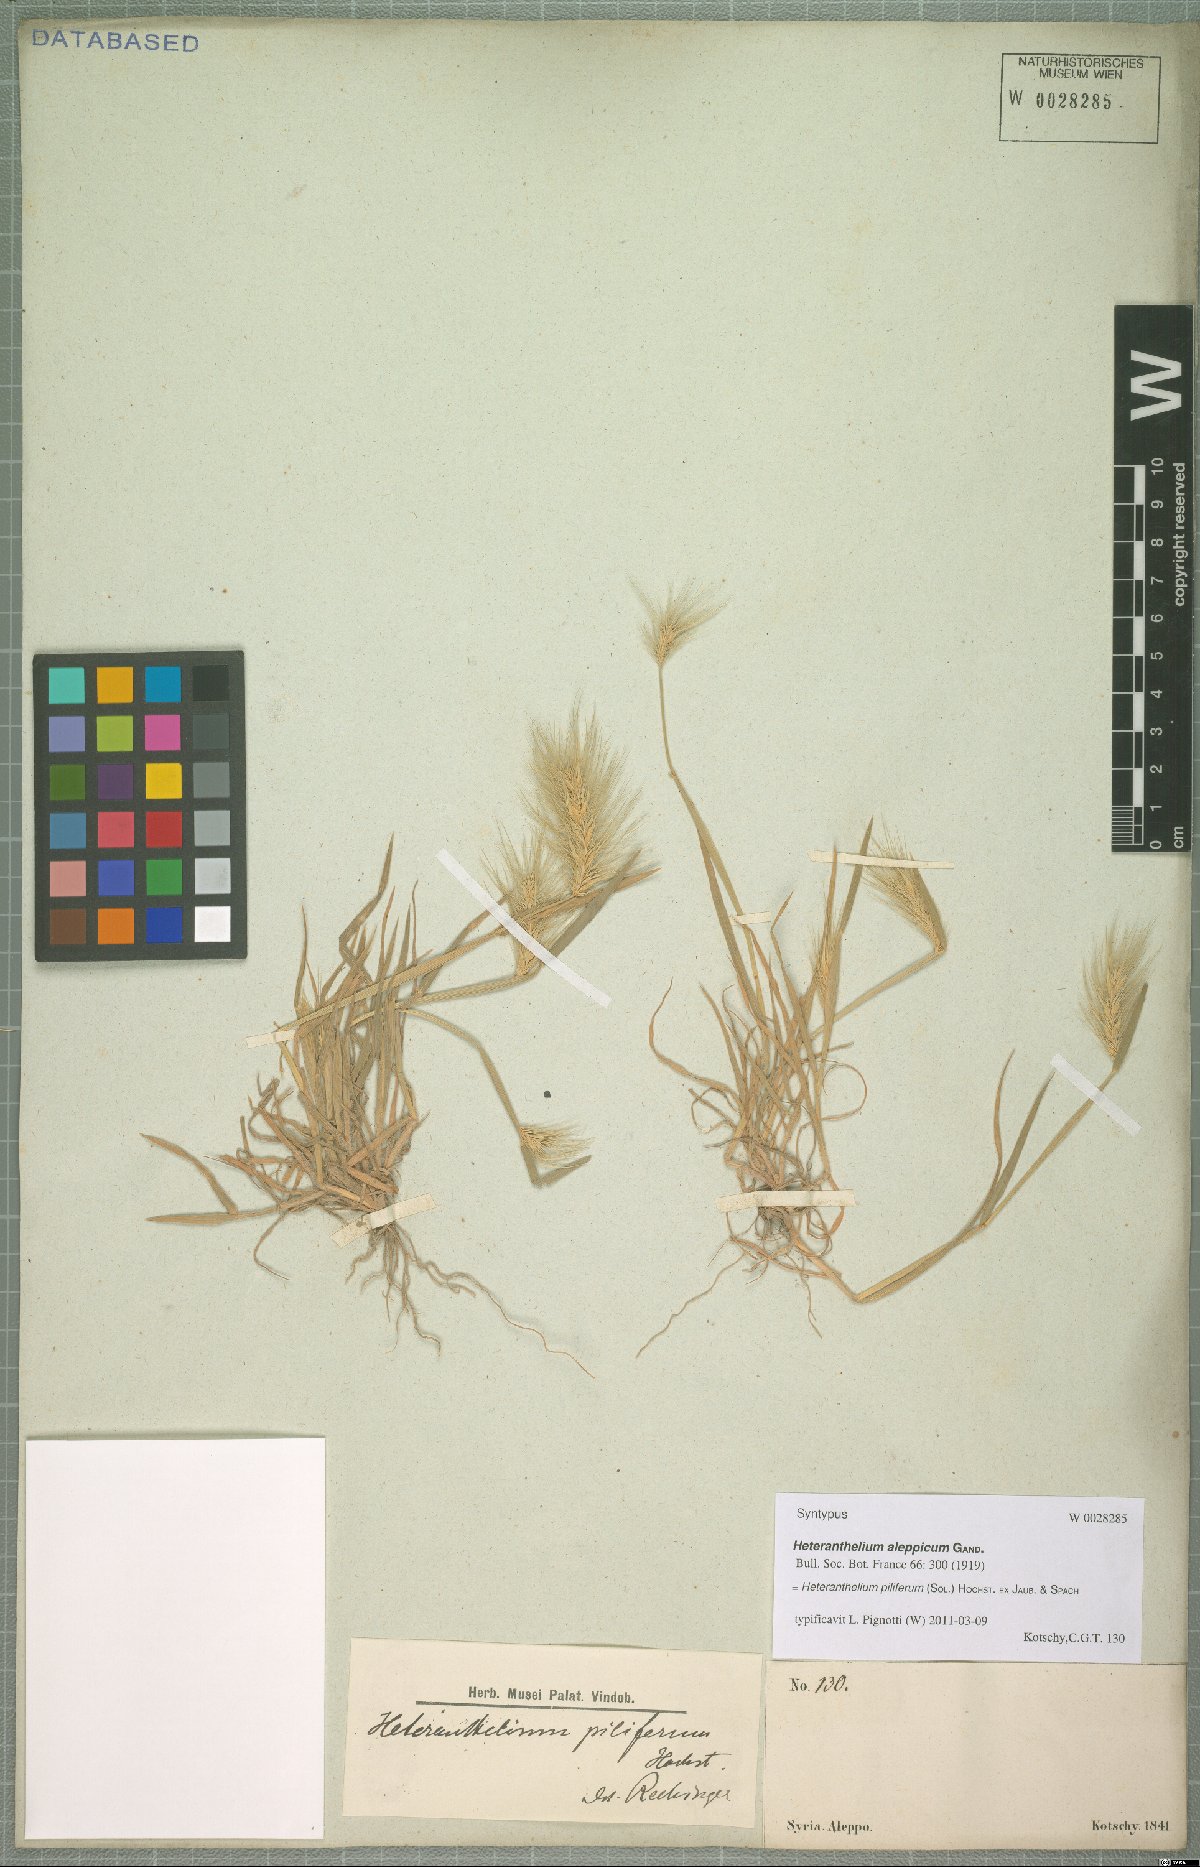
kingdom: Plantae
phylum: Tracheophyta
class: Liliopsida
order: Poales
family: Poaceae
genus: Heteranthelium
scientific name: Heteranthelium piliferum
